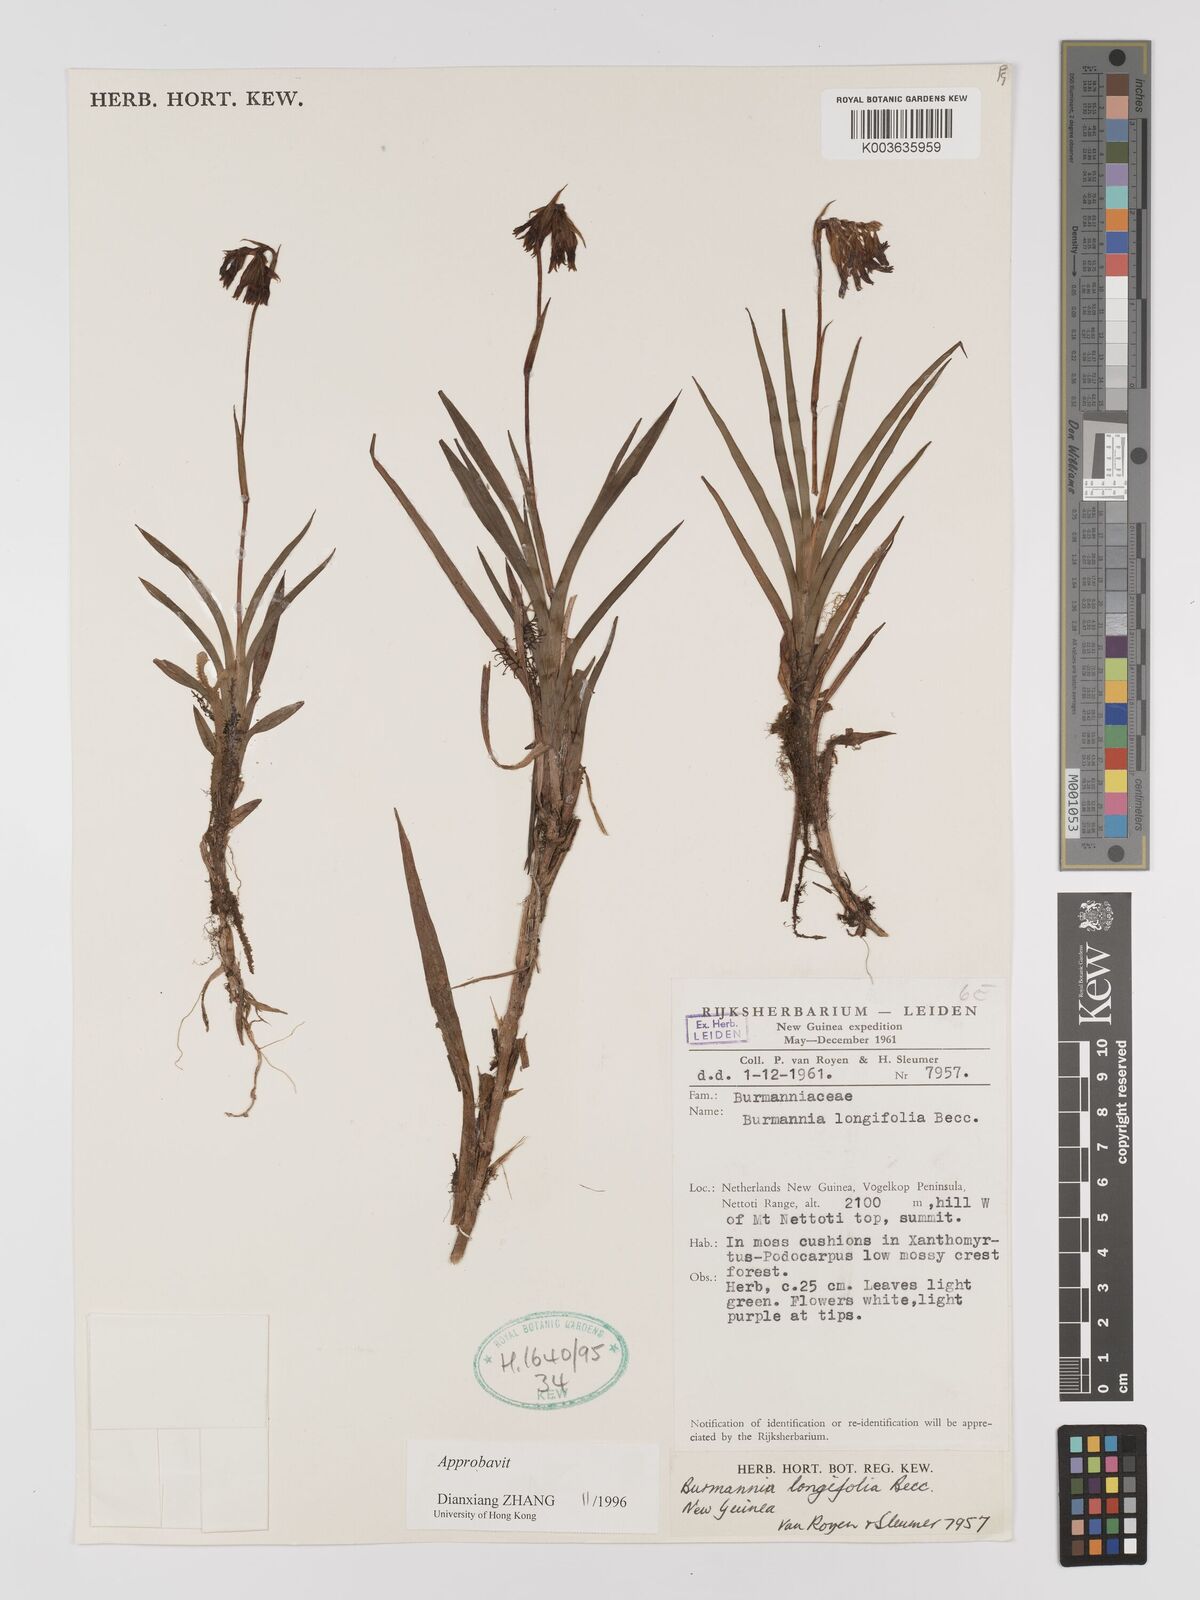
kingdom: Plantae
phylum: Tracheophyta
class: Liliopsida
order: Dioscoreales
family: Burmanniaceae
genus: Burmannia
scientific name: Burmannia longifolia
